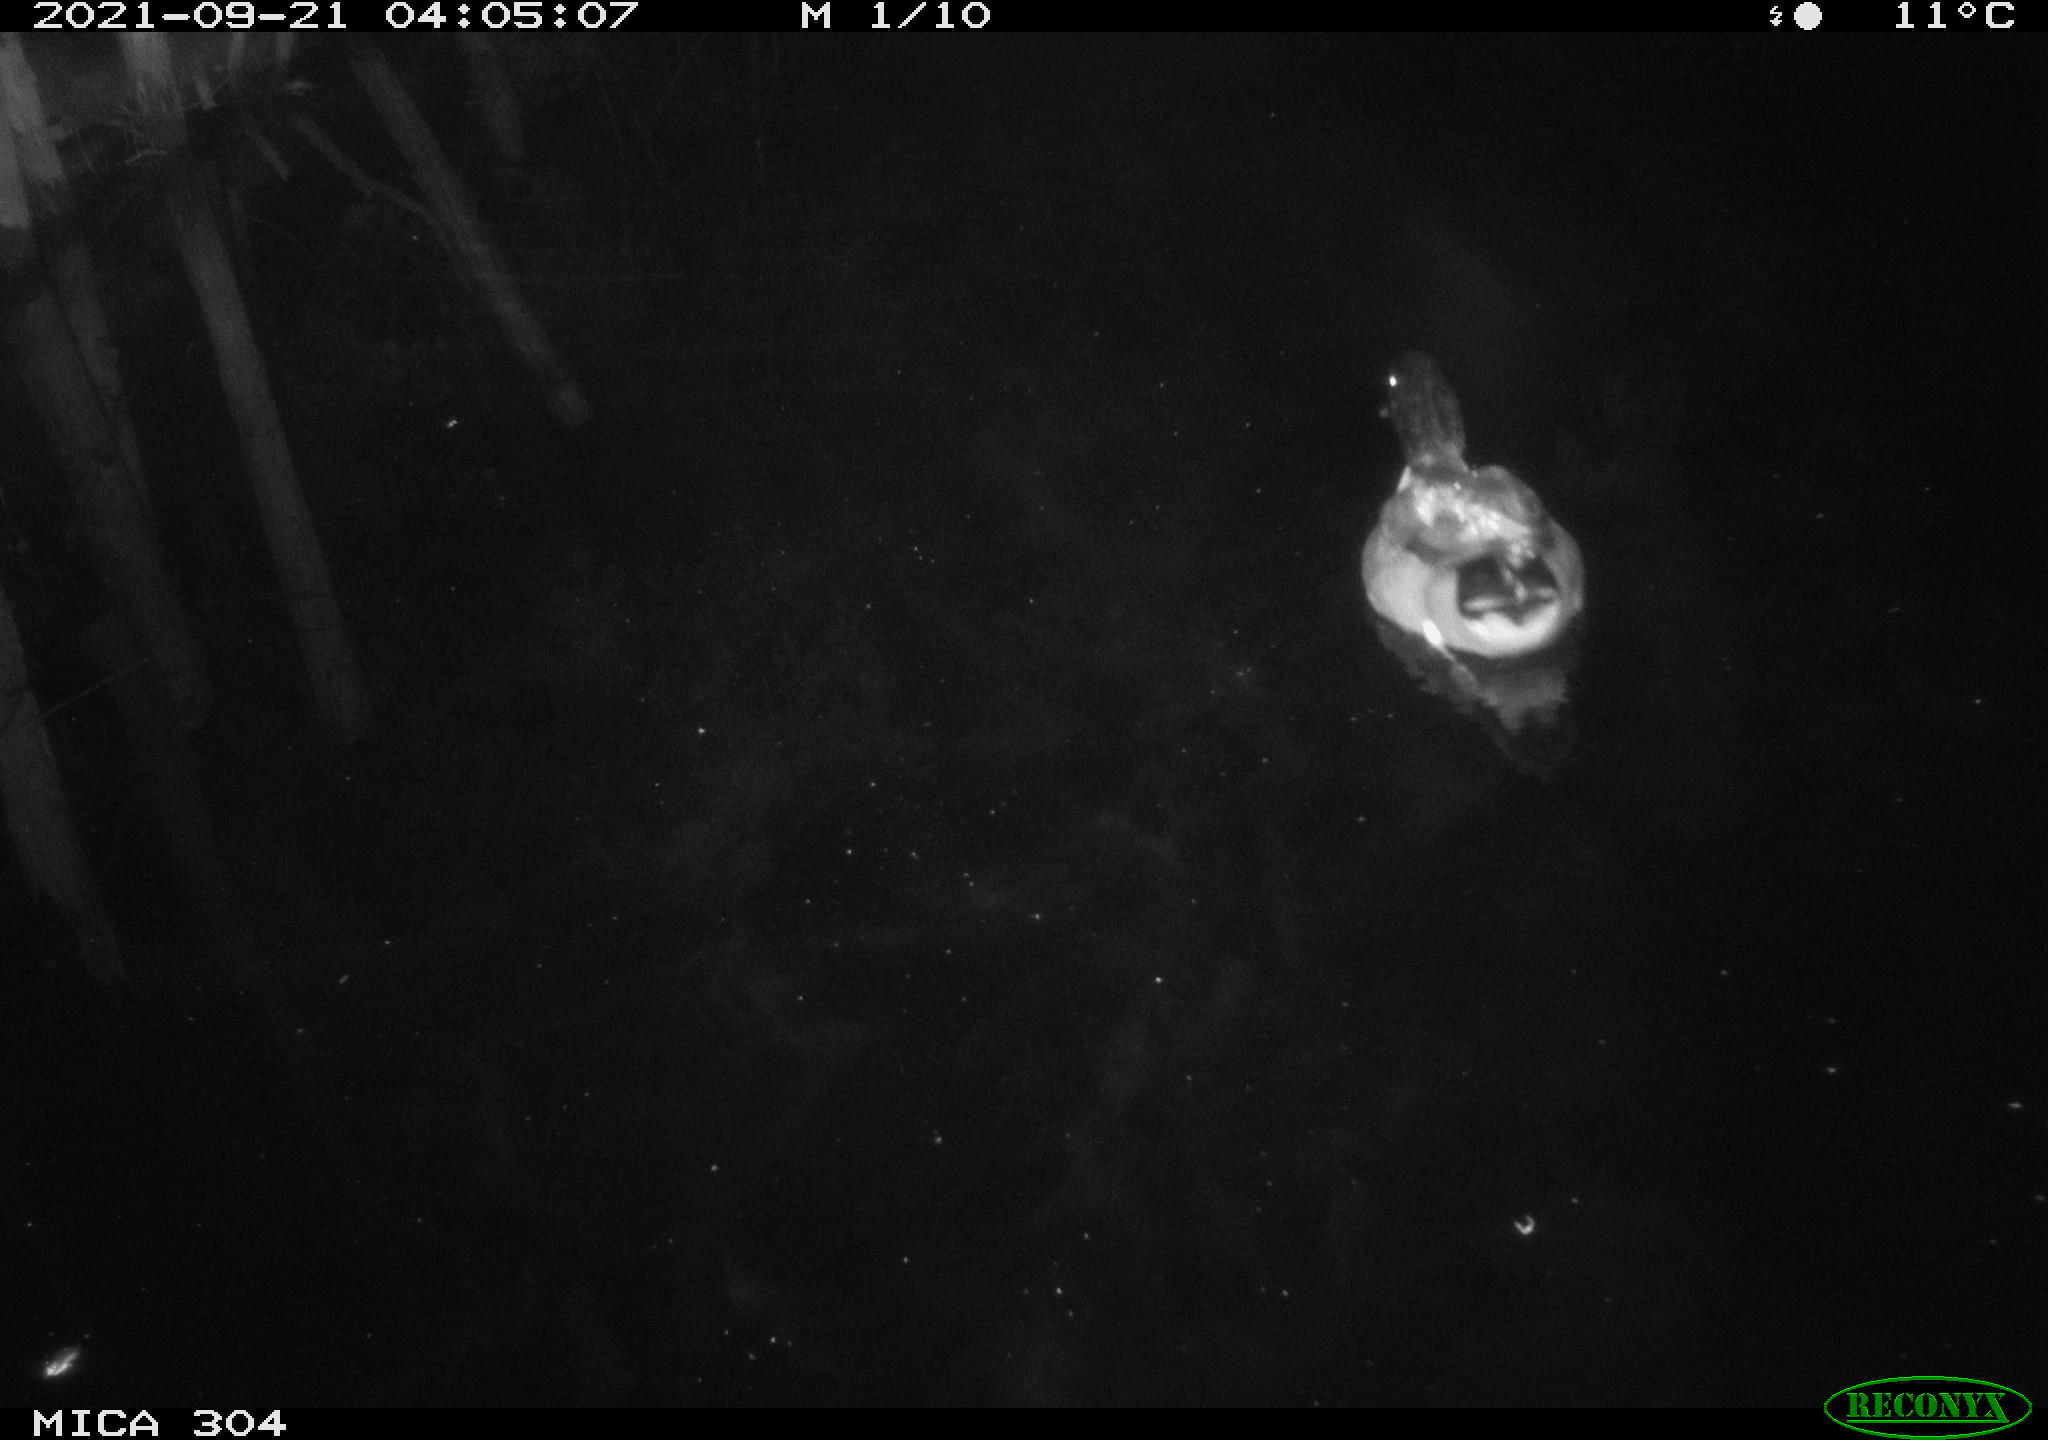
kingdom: Animalia
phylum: Chordata
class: Aves
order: Anseriformes
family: Anatidae
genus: Anas
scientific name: Anas platyrhynchos
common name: Mallard
